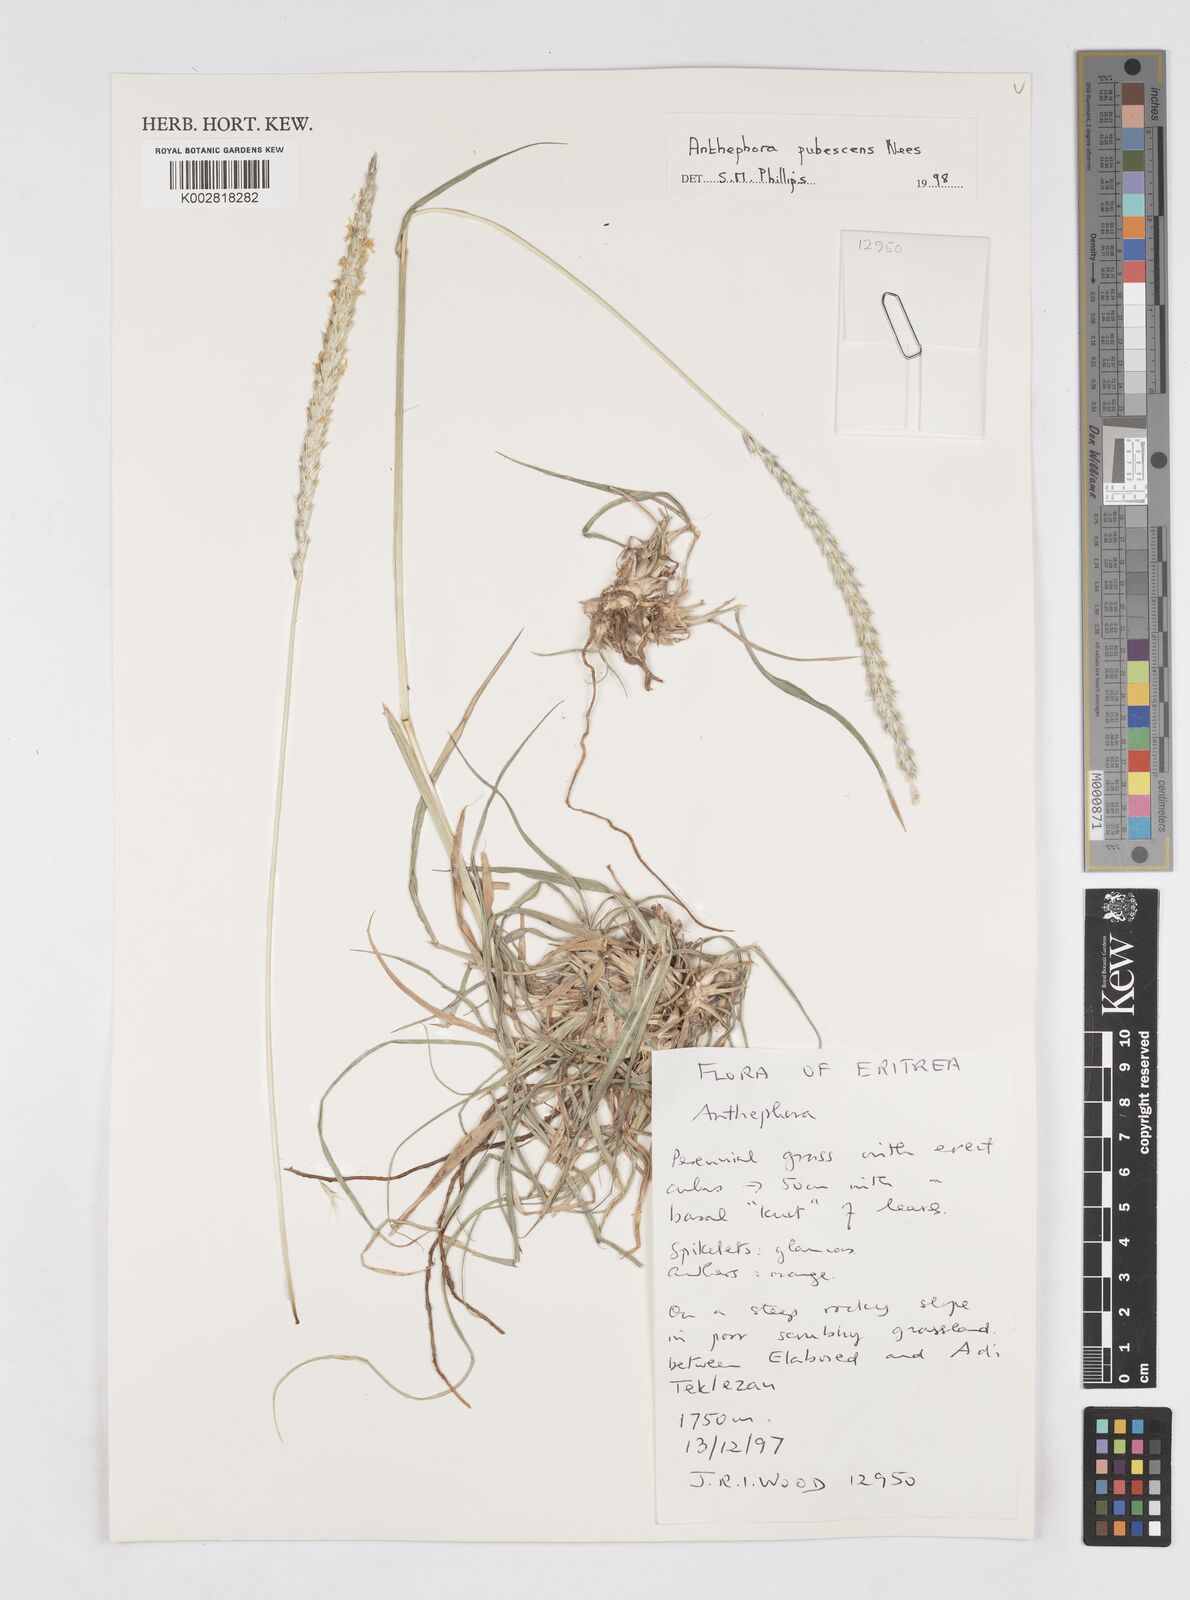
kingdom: Plantae
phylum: Tracheophyta
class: Liliopsida
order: Poales
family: Poaceae
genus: Anthephora
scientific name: Anthephora pubescens
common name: Wool grass
